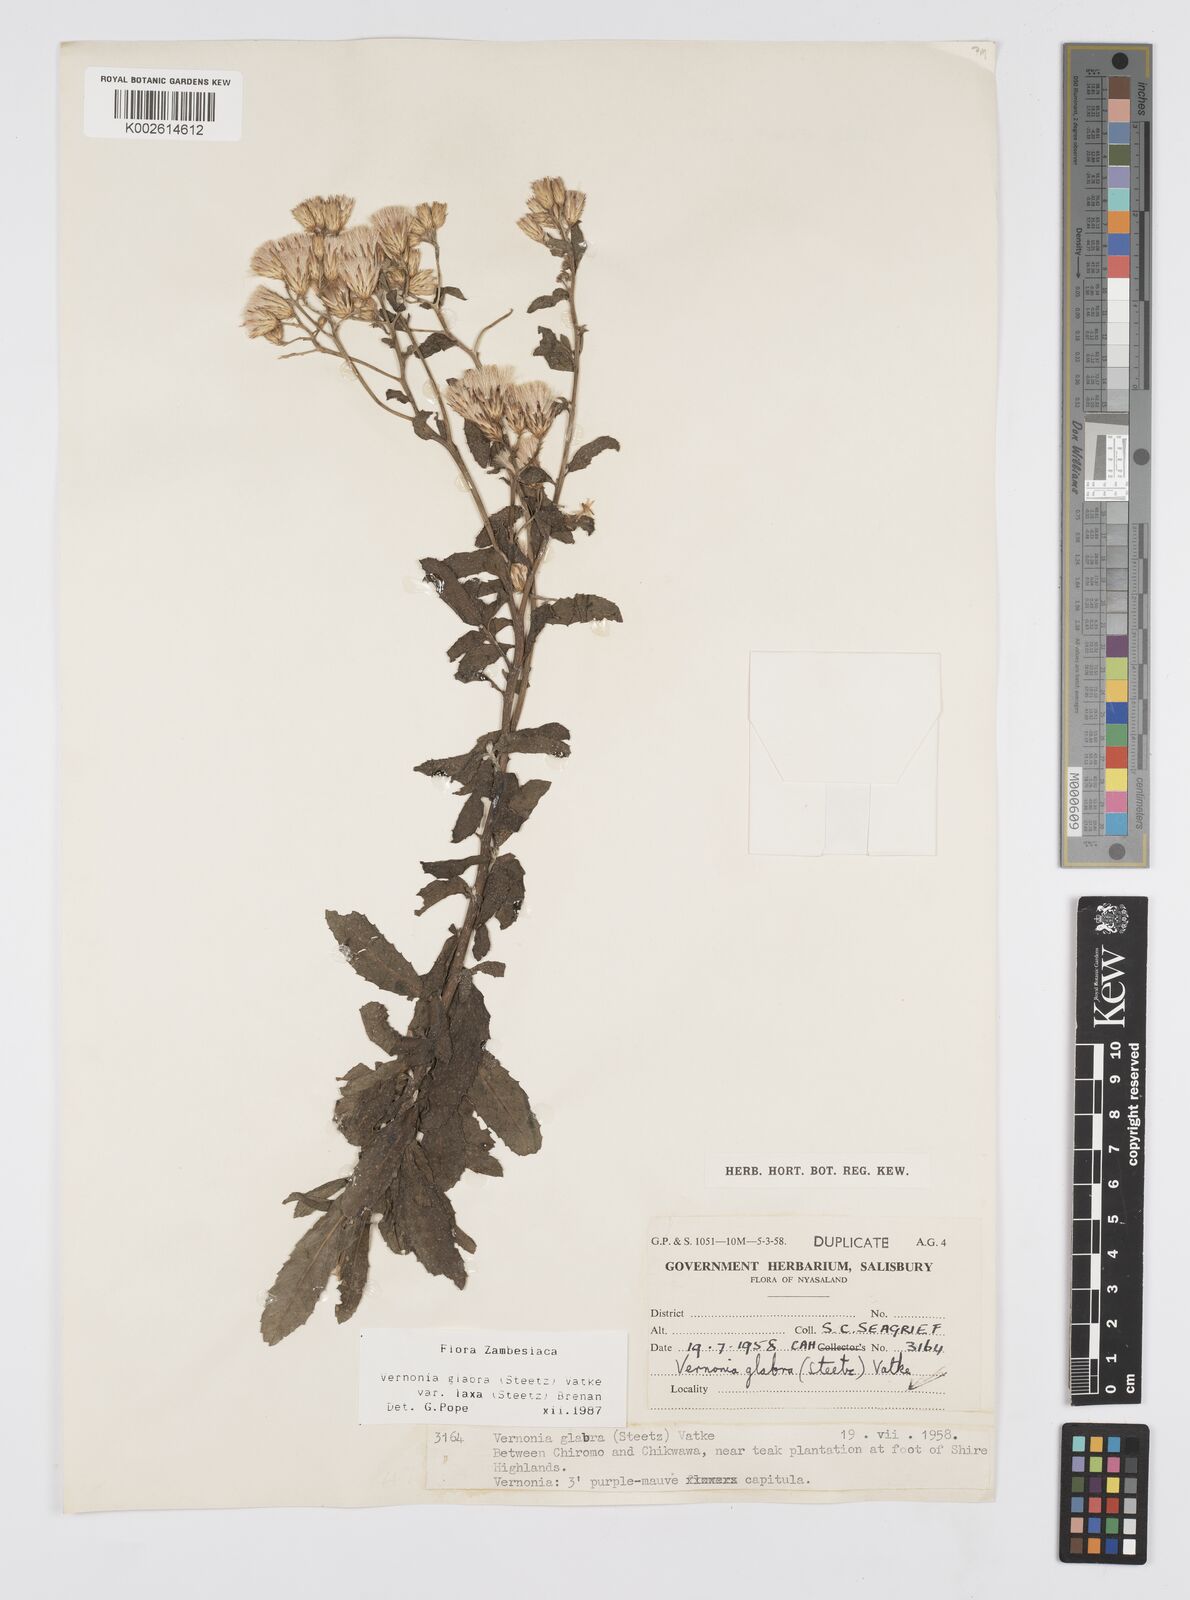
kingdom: Plantae
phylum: Tracheophyta
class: Magnoliopsida
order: Asterales
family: Asteraceae
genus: Linzia
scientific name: Linzia glabra
